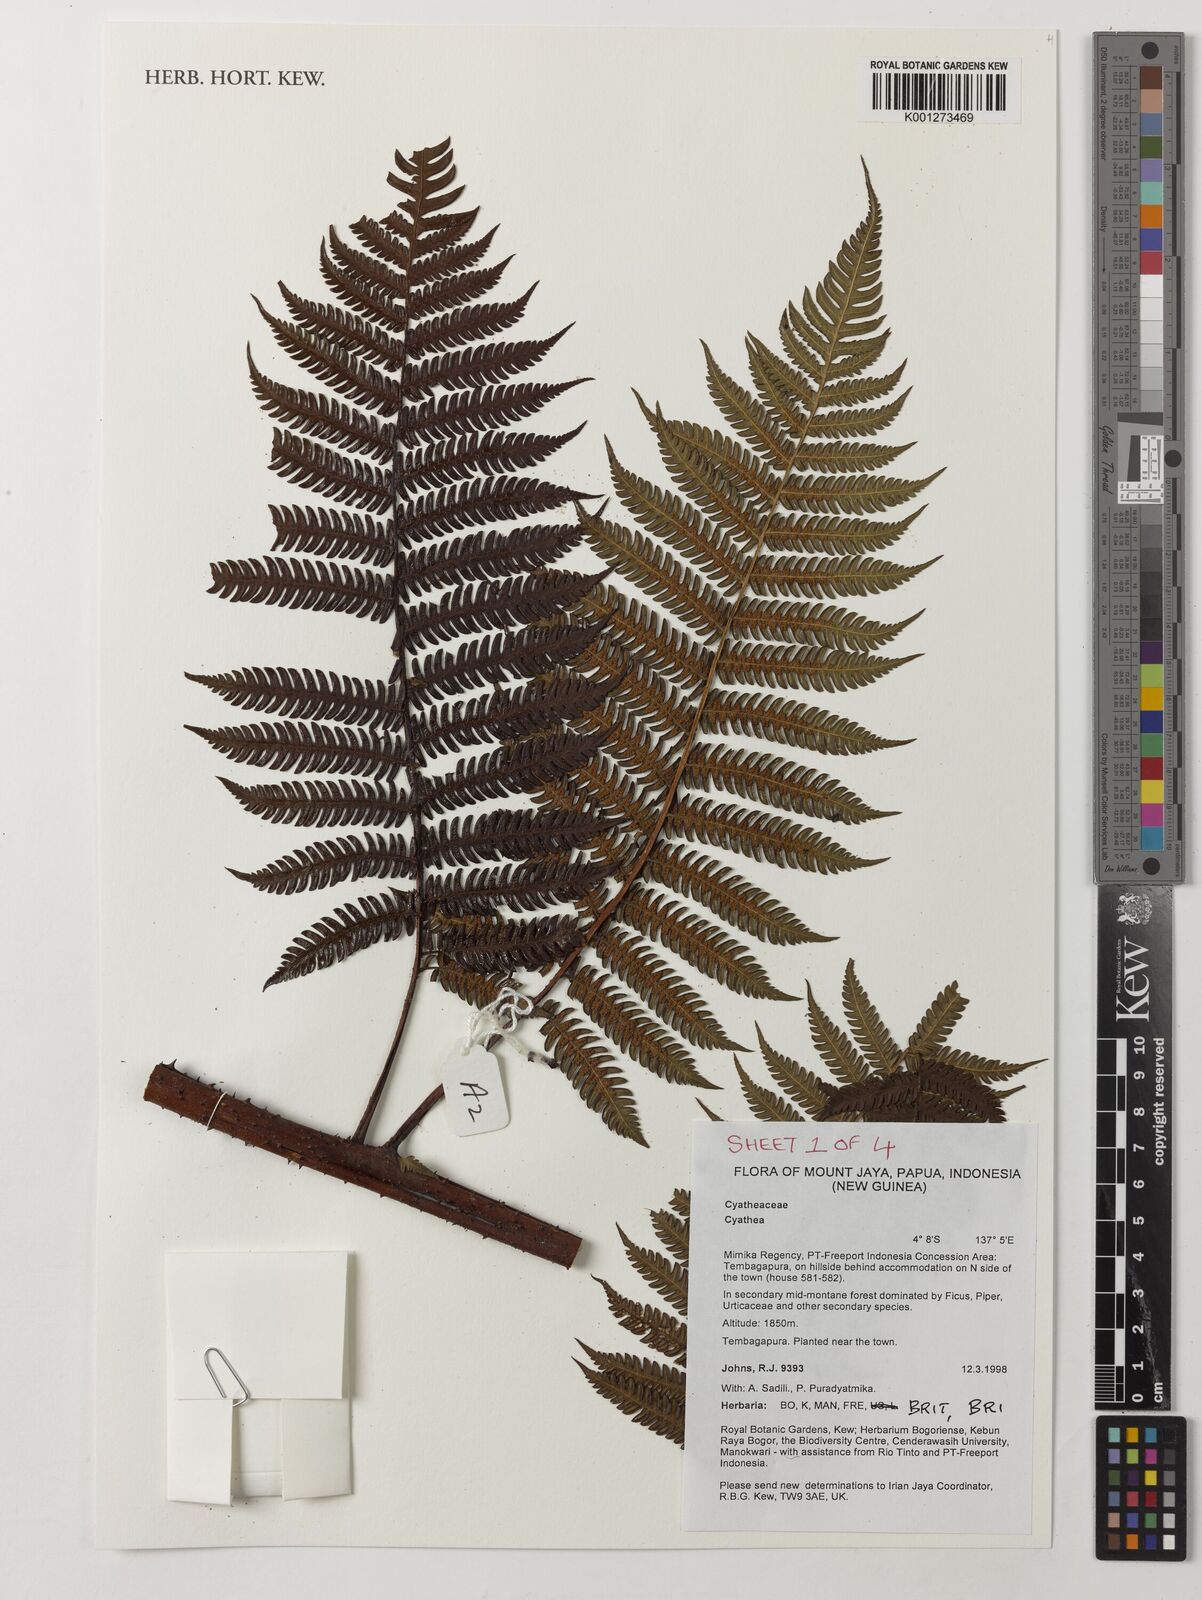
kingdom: Plantae
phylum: Tracheophyta
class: Polypodiopsida
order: Cyatheales
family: Cyatheaceae
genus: Cyathea
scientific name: Cyathea
